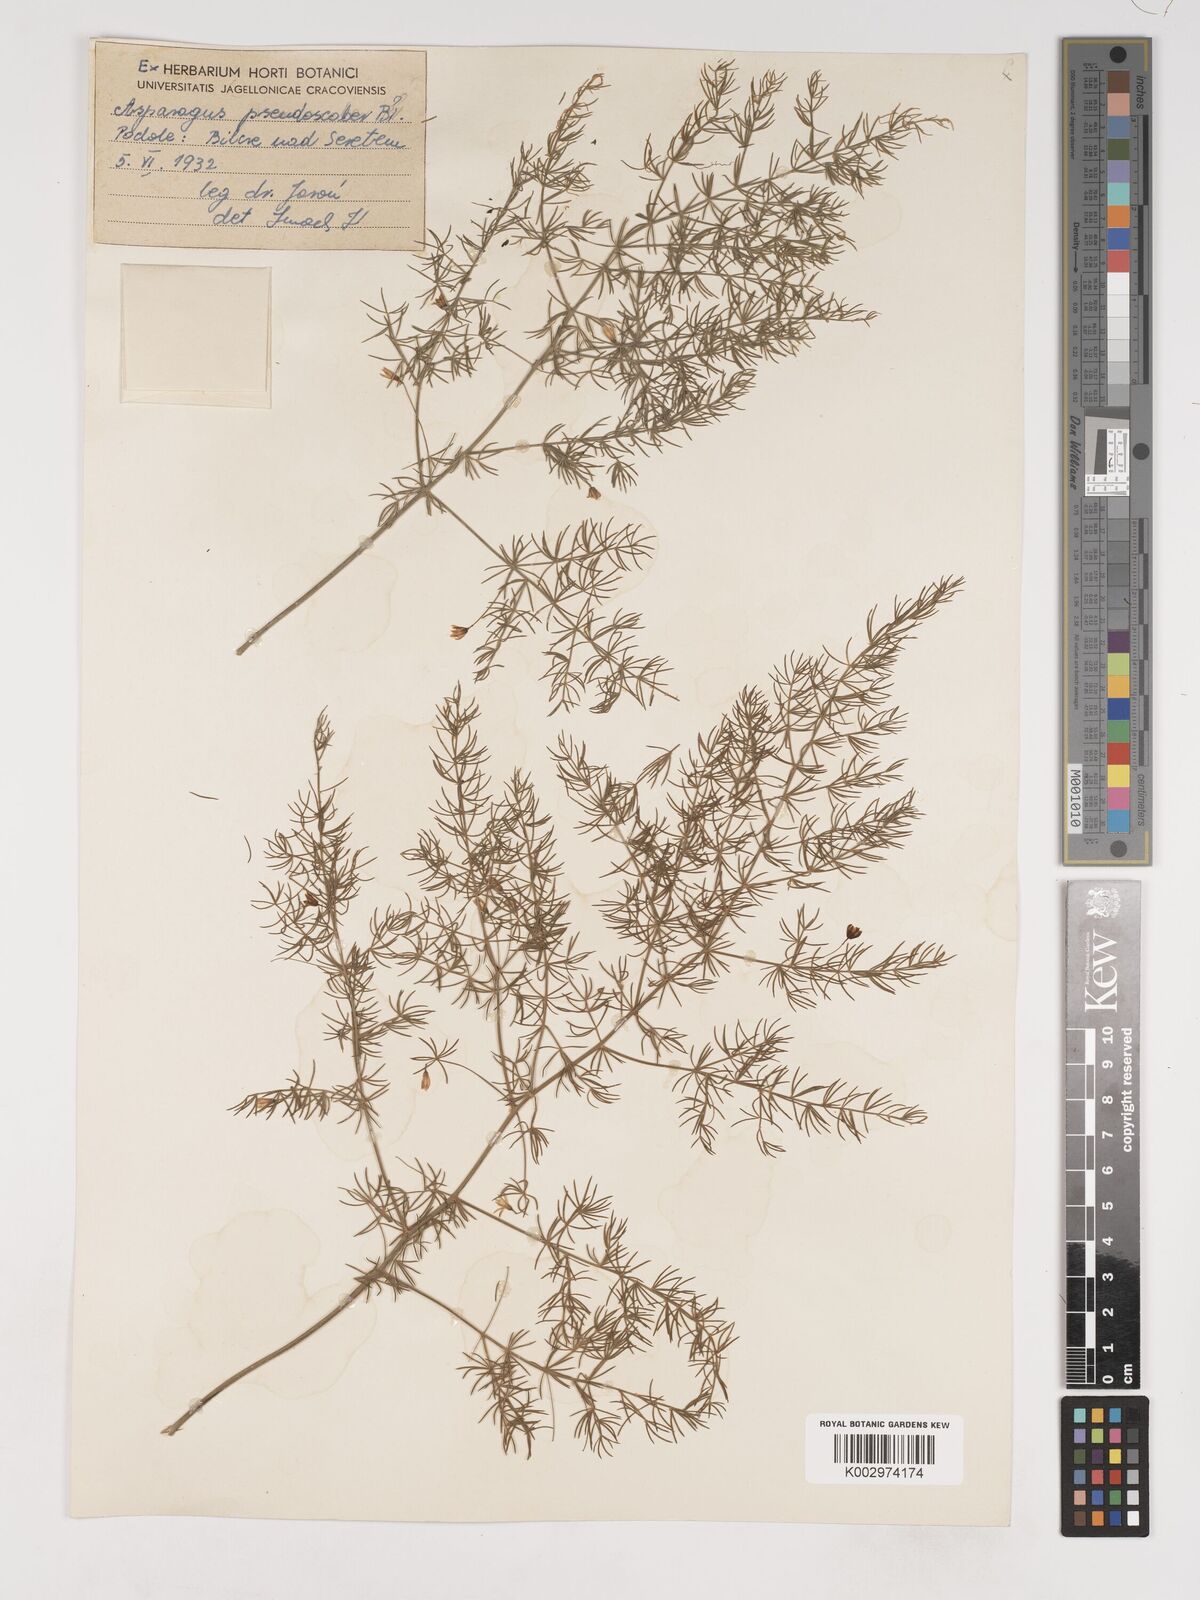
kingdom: Plantae
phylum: Tracheophyta
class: Liliopsida
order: Asparagales
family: Asparagaceae
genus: Asparagus
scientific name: Asparagus pseudoscaber
